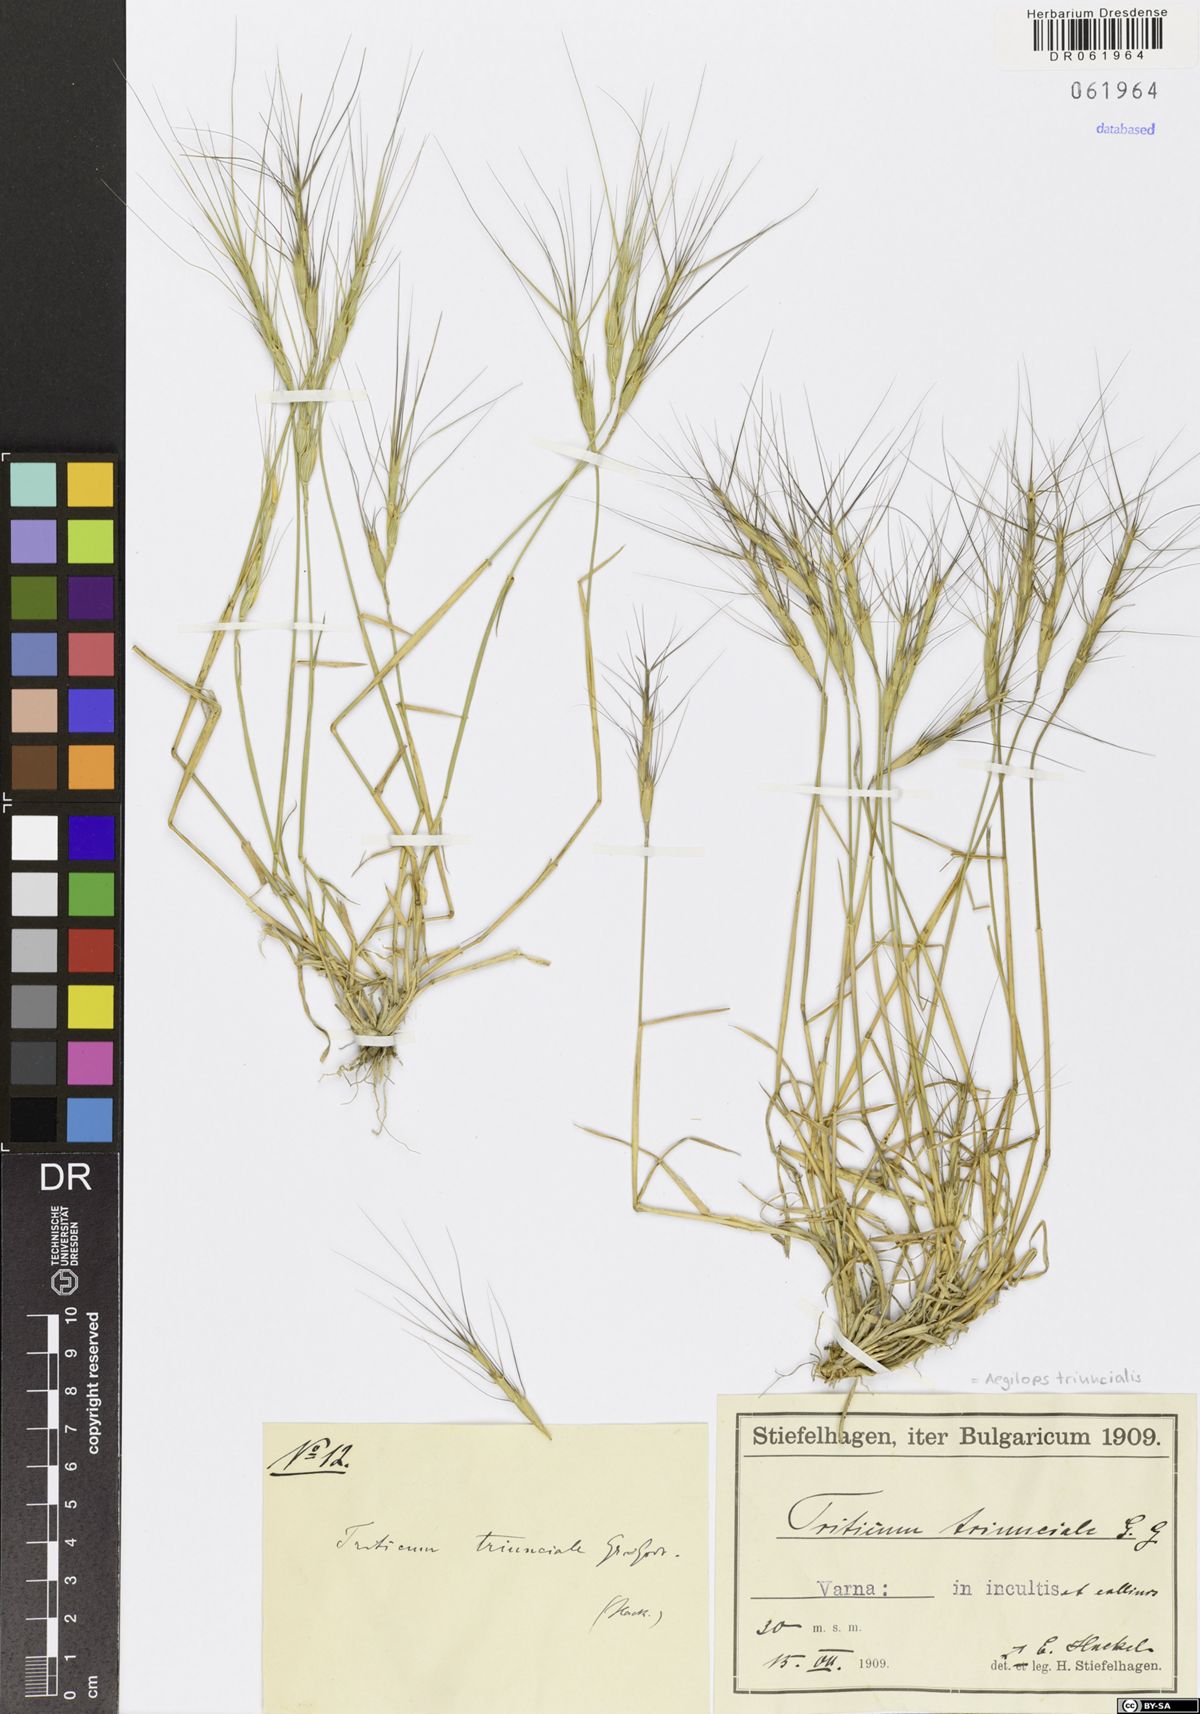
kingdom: Plantae
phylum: Tracheophyta
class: Liliopsida
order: Poales
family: Poaceae
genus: Aegilops
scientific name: Aegilops triuncialis
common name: Barb goat grass
